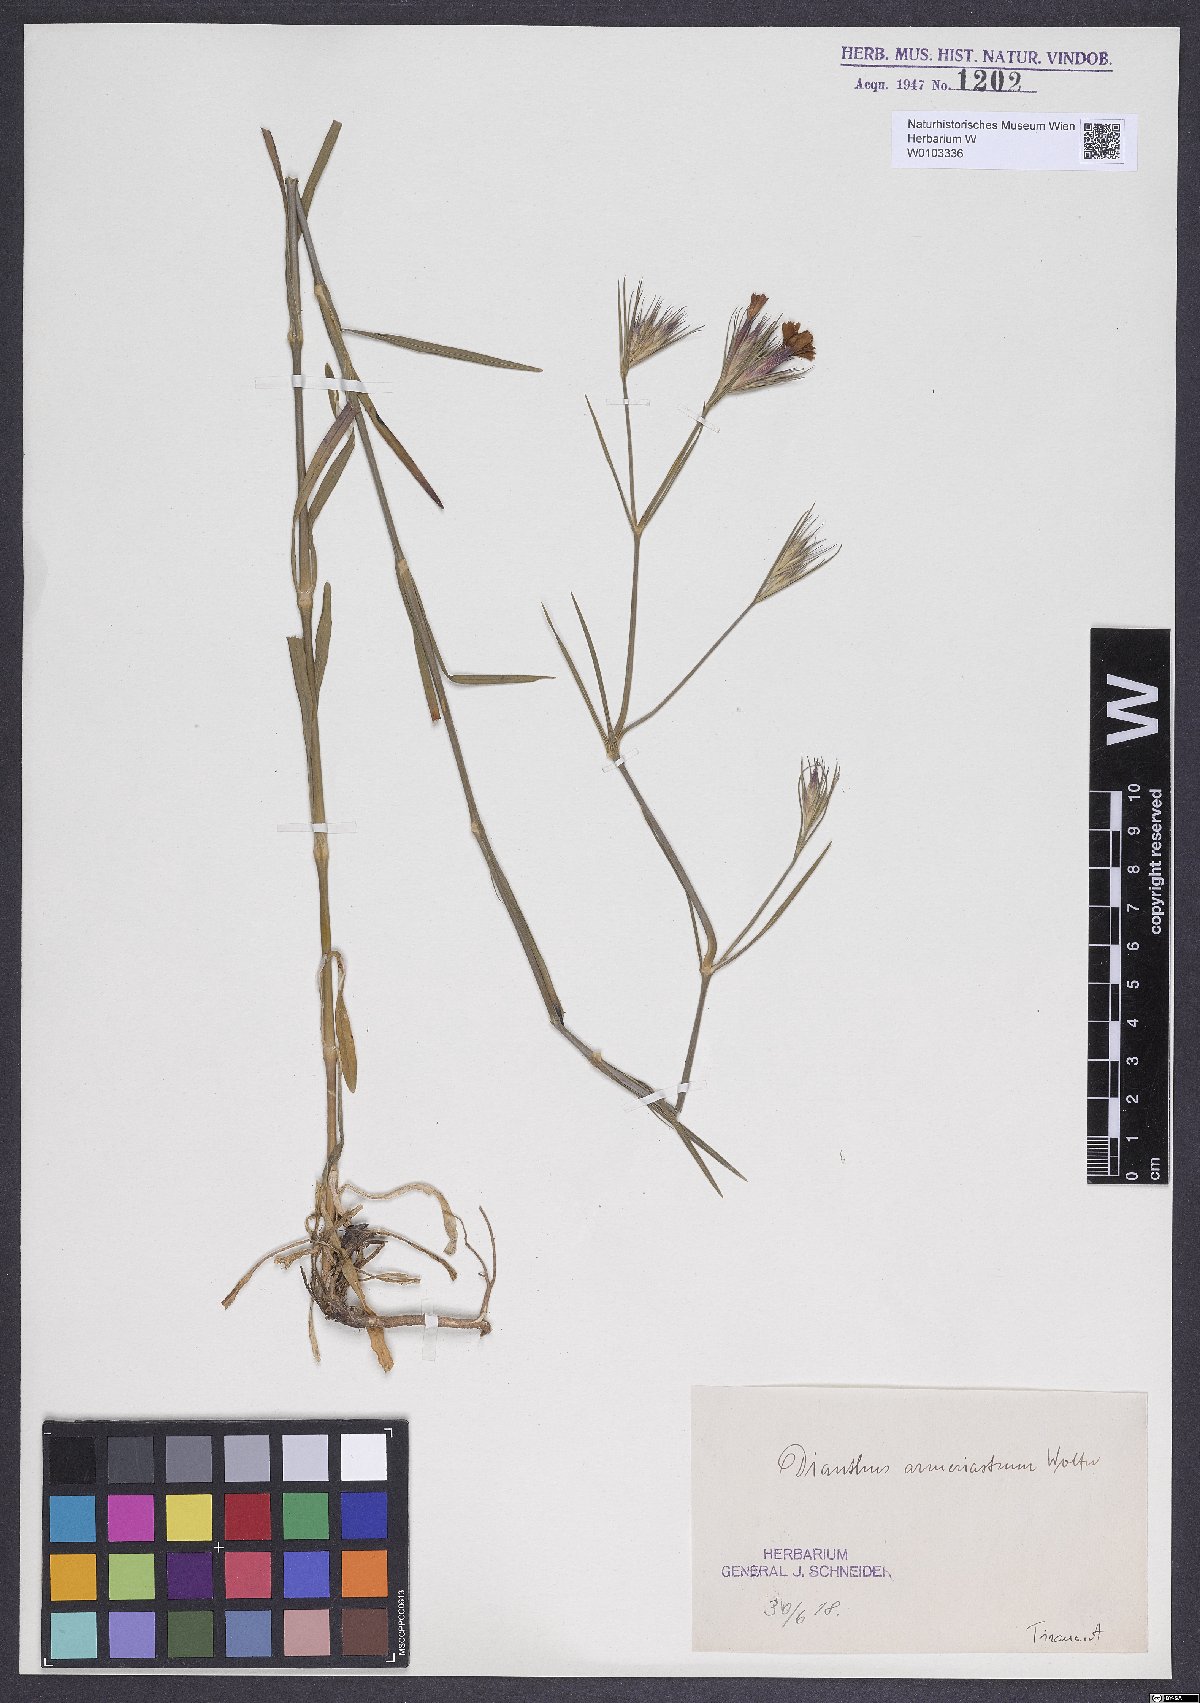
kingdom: Plantae
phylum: Tracheophyta
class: Magnoliopsida
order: Caryophyllales
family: Caryophyllaceae
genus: Dianthus
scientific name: Dianthus armeria
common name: Deptford pink
